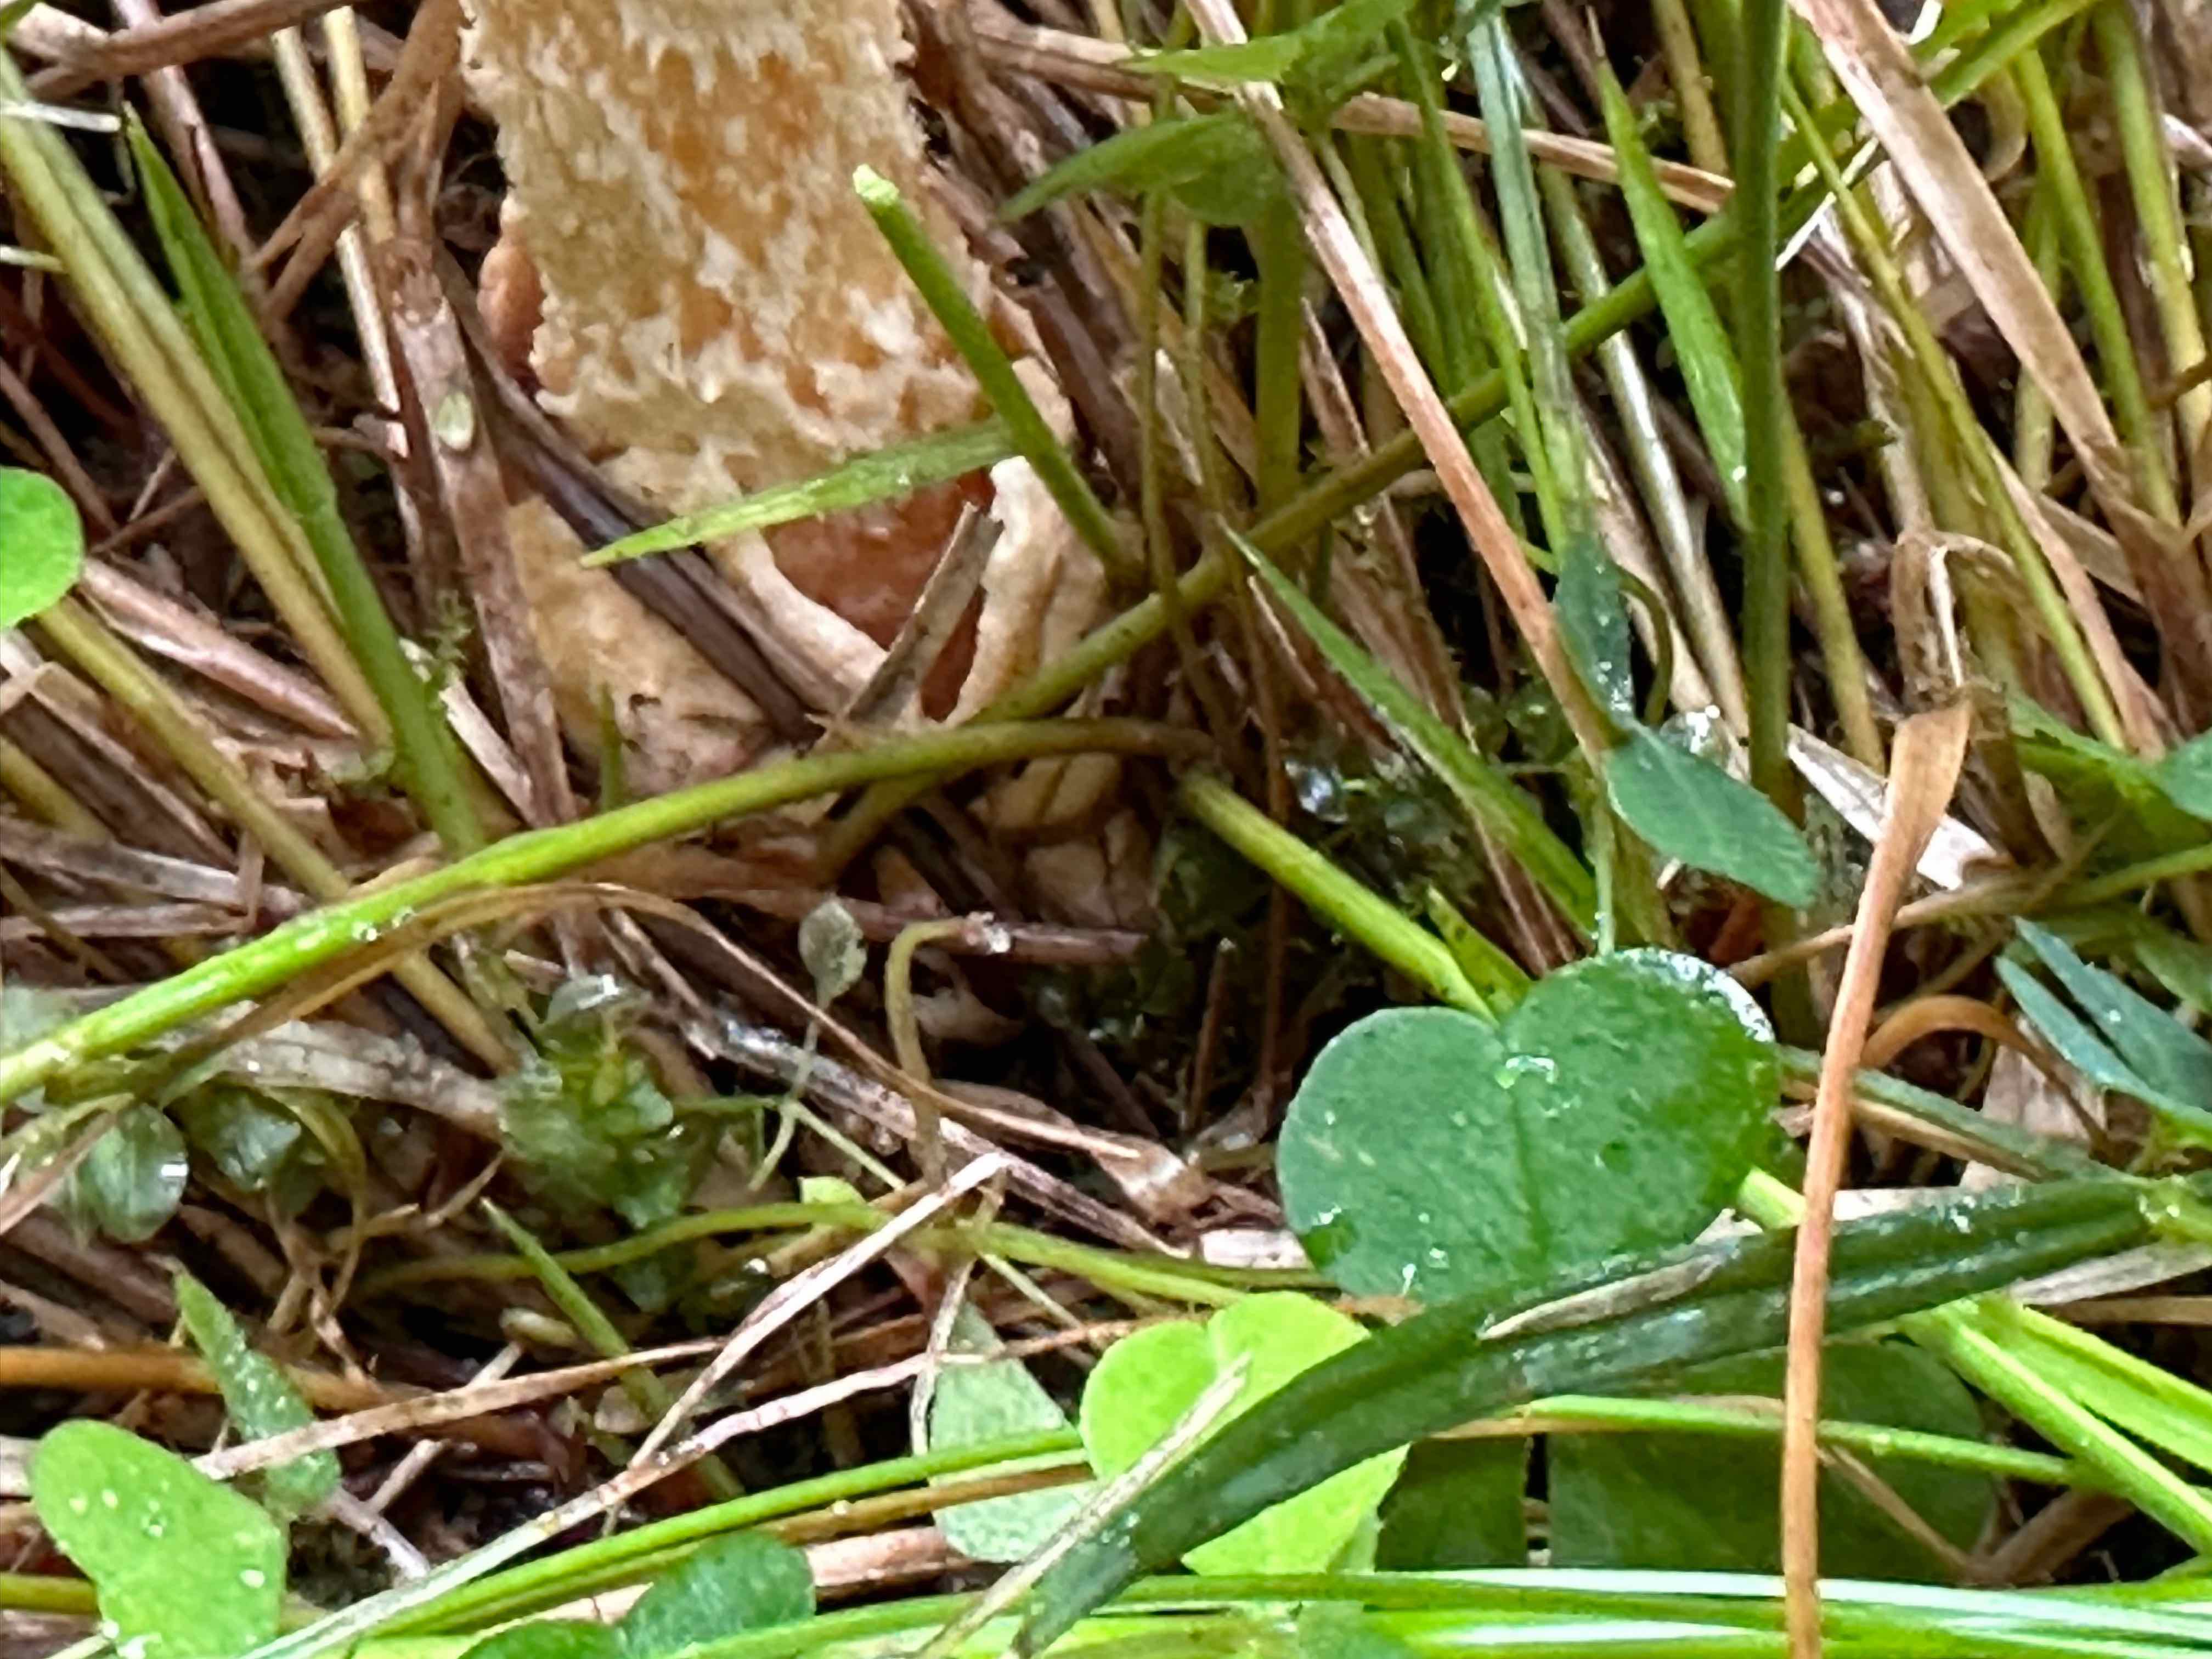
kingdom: Fungi
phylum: Basidiomycota
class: Agaricomycetes
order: Agaricales
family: Amanitaceae
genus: Amanita
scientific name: Amanita crocea
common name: gylden kam-fluesvamp
